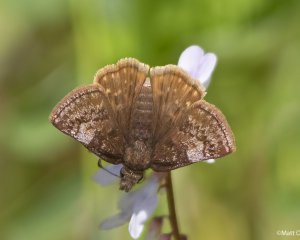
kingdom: Animalia
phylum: Arthropoda
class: Insecta
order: Lepidoptera
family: Hesperiidae
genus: Erynnis
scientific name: Erynnis icelus
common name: Dreamy Duskywing
